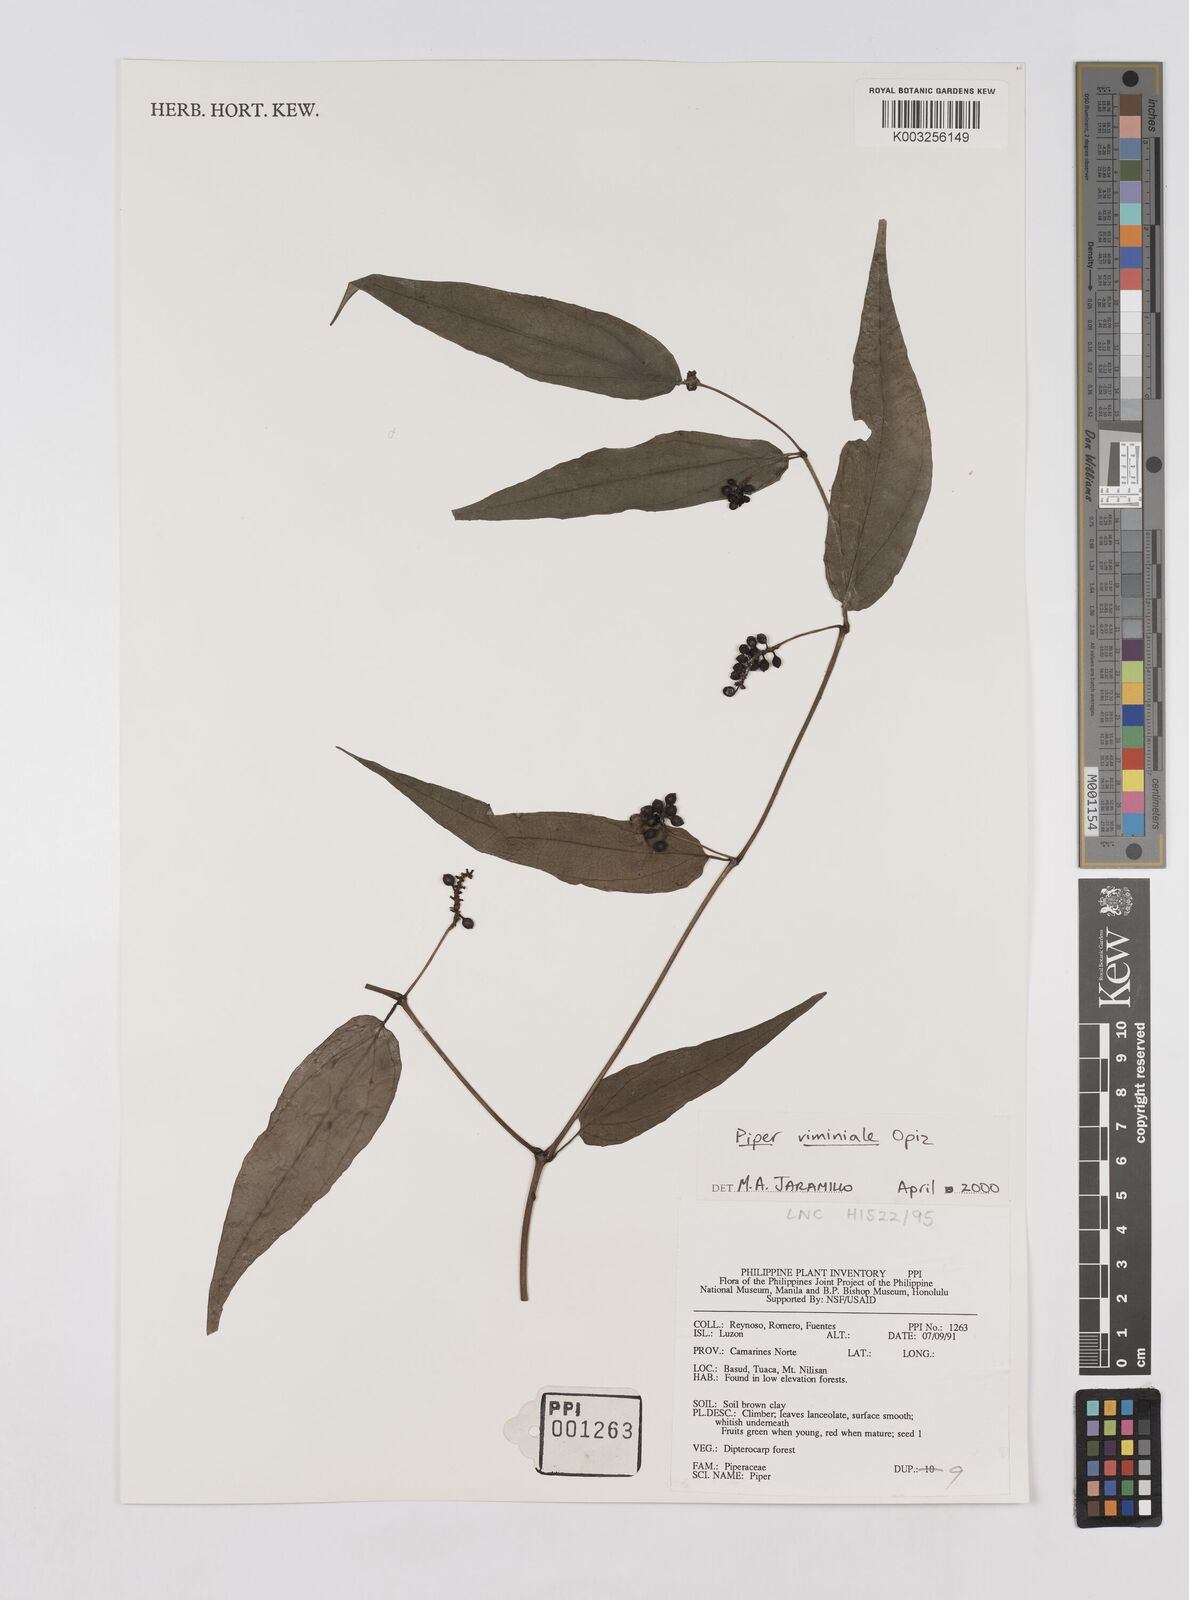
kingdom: Plantae
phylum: Tracheophyta
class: Magnoliopsida
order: Piperales
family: Piperaceae
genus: Piper
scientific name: Piper lanatum
